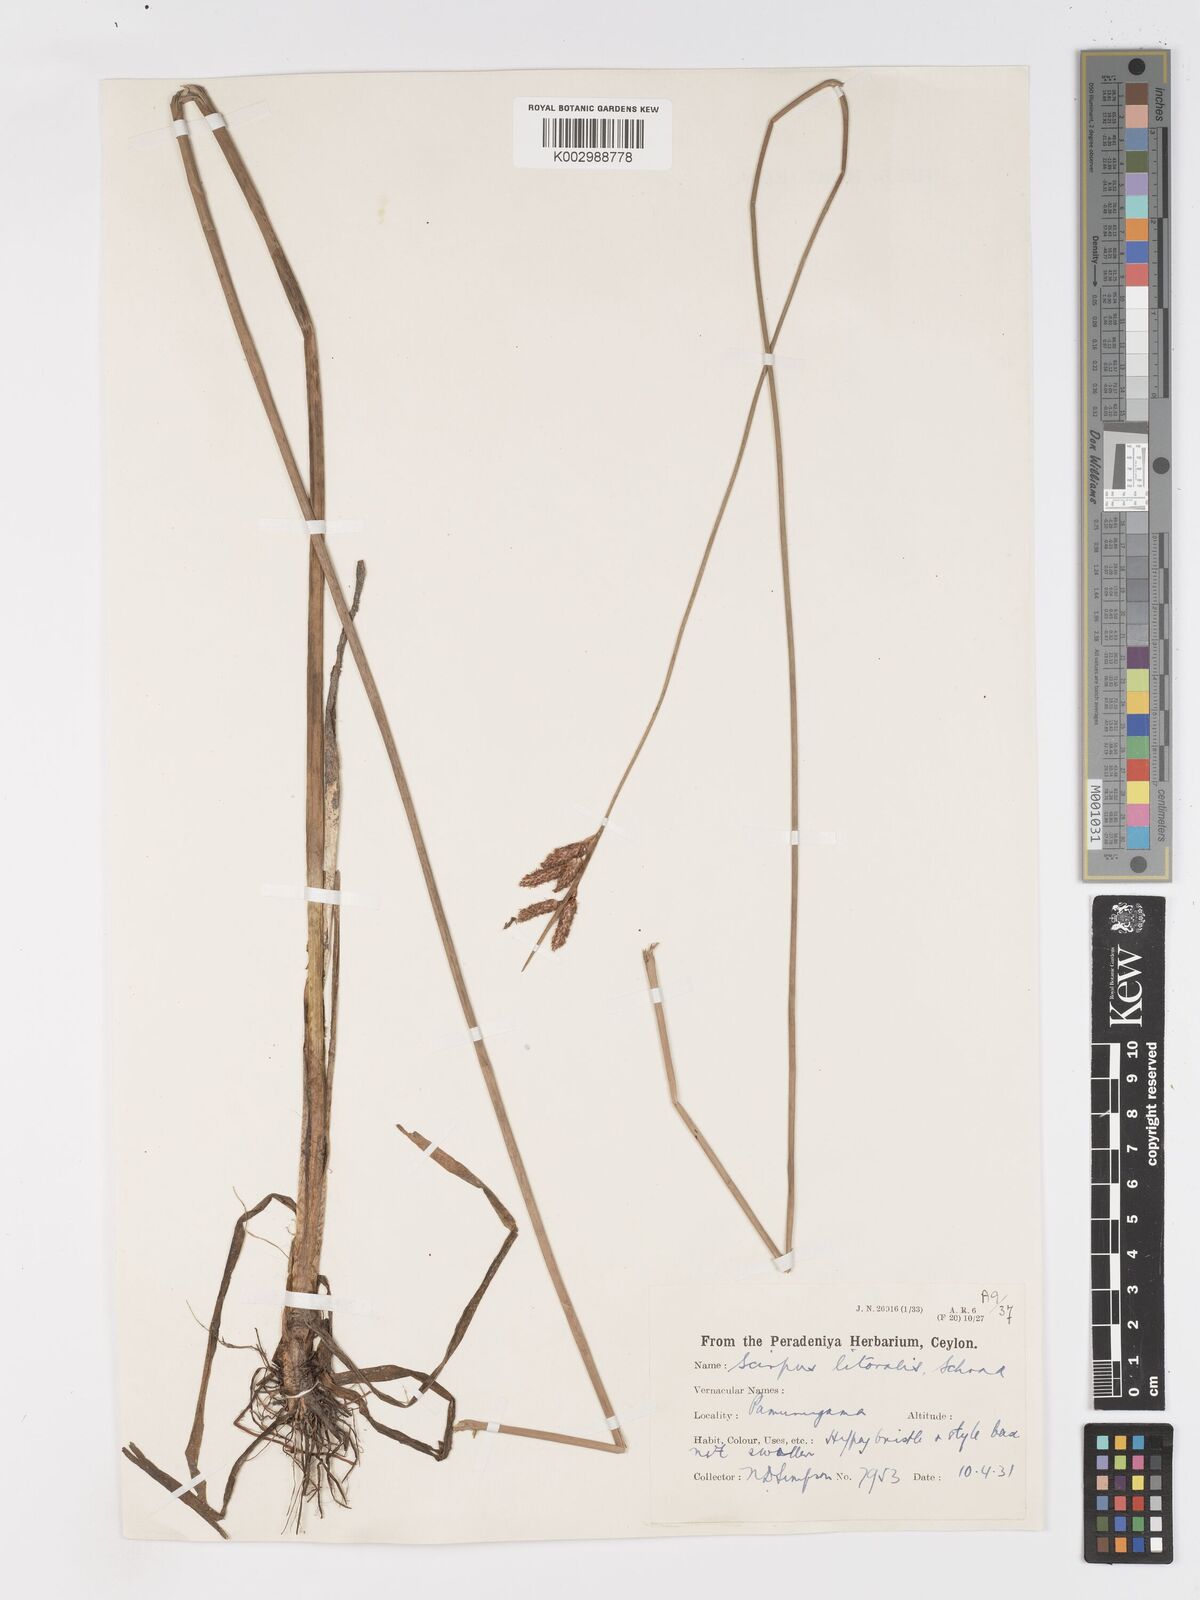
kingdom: Plantae
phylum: Tracheophyta
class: Liliopsida
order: Poales
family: Cyperaceae
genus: Schoenoplectus
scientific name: Schoenoplectus litoralis
